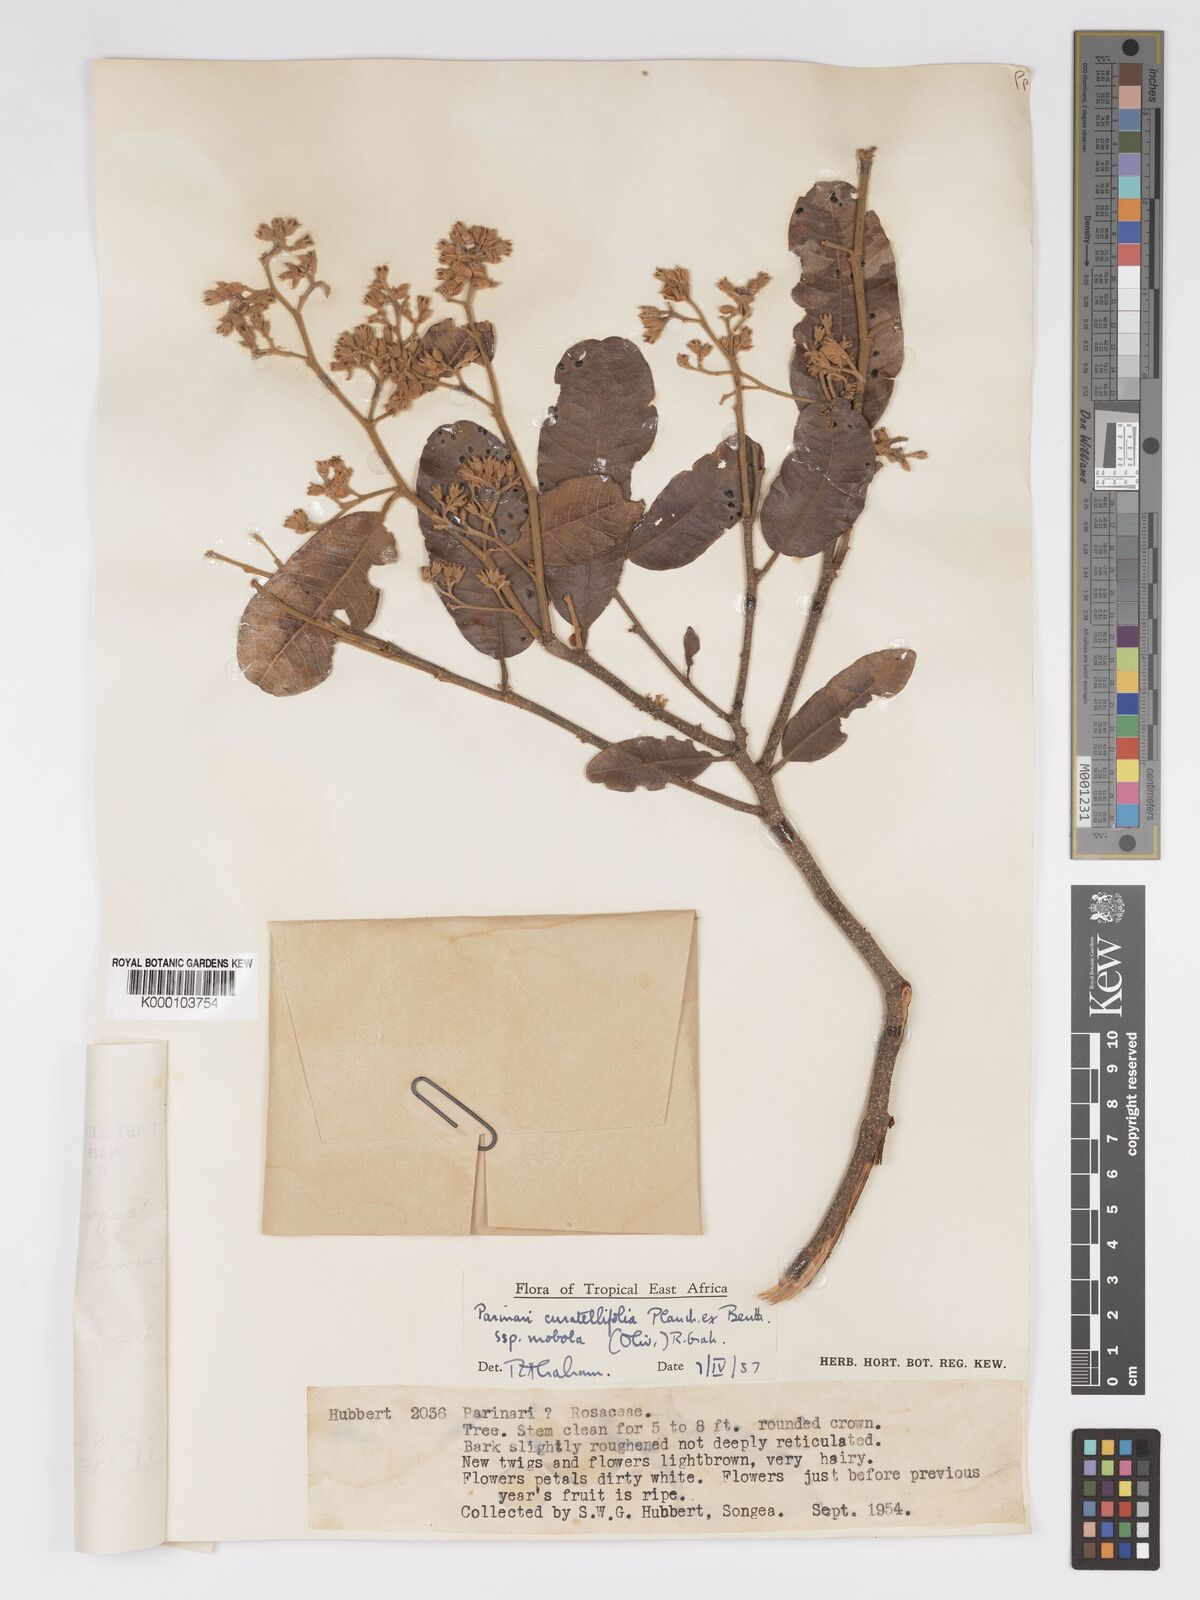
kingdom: Plantae
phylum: Tracheophyta
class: Magnoliopsida
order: Malpighiales
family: Chrysobalanaceae
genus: Parinari
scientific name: Parinari curatellifolia
